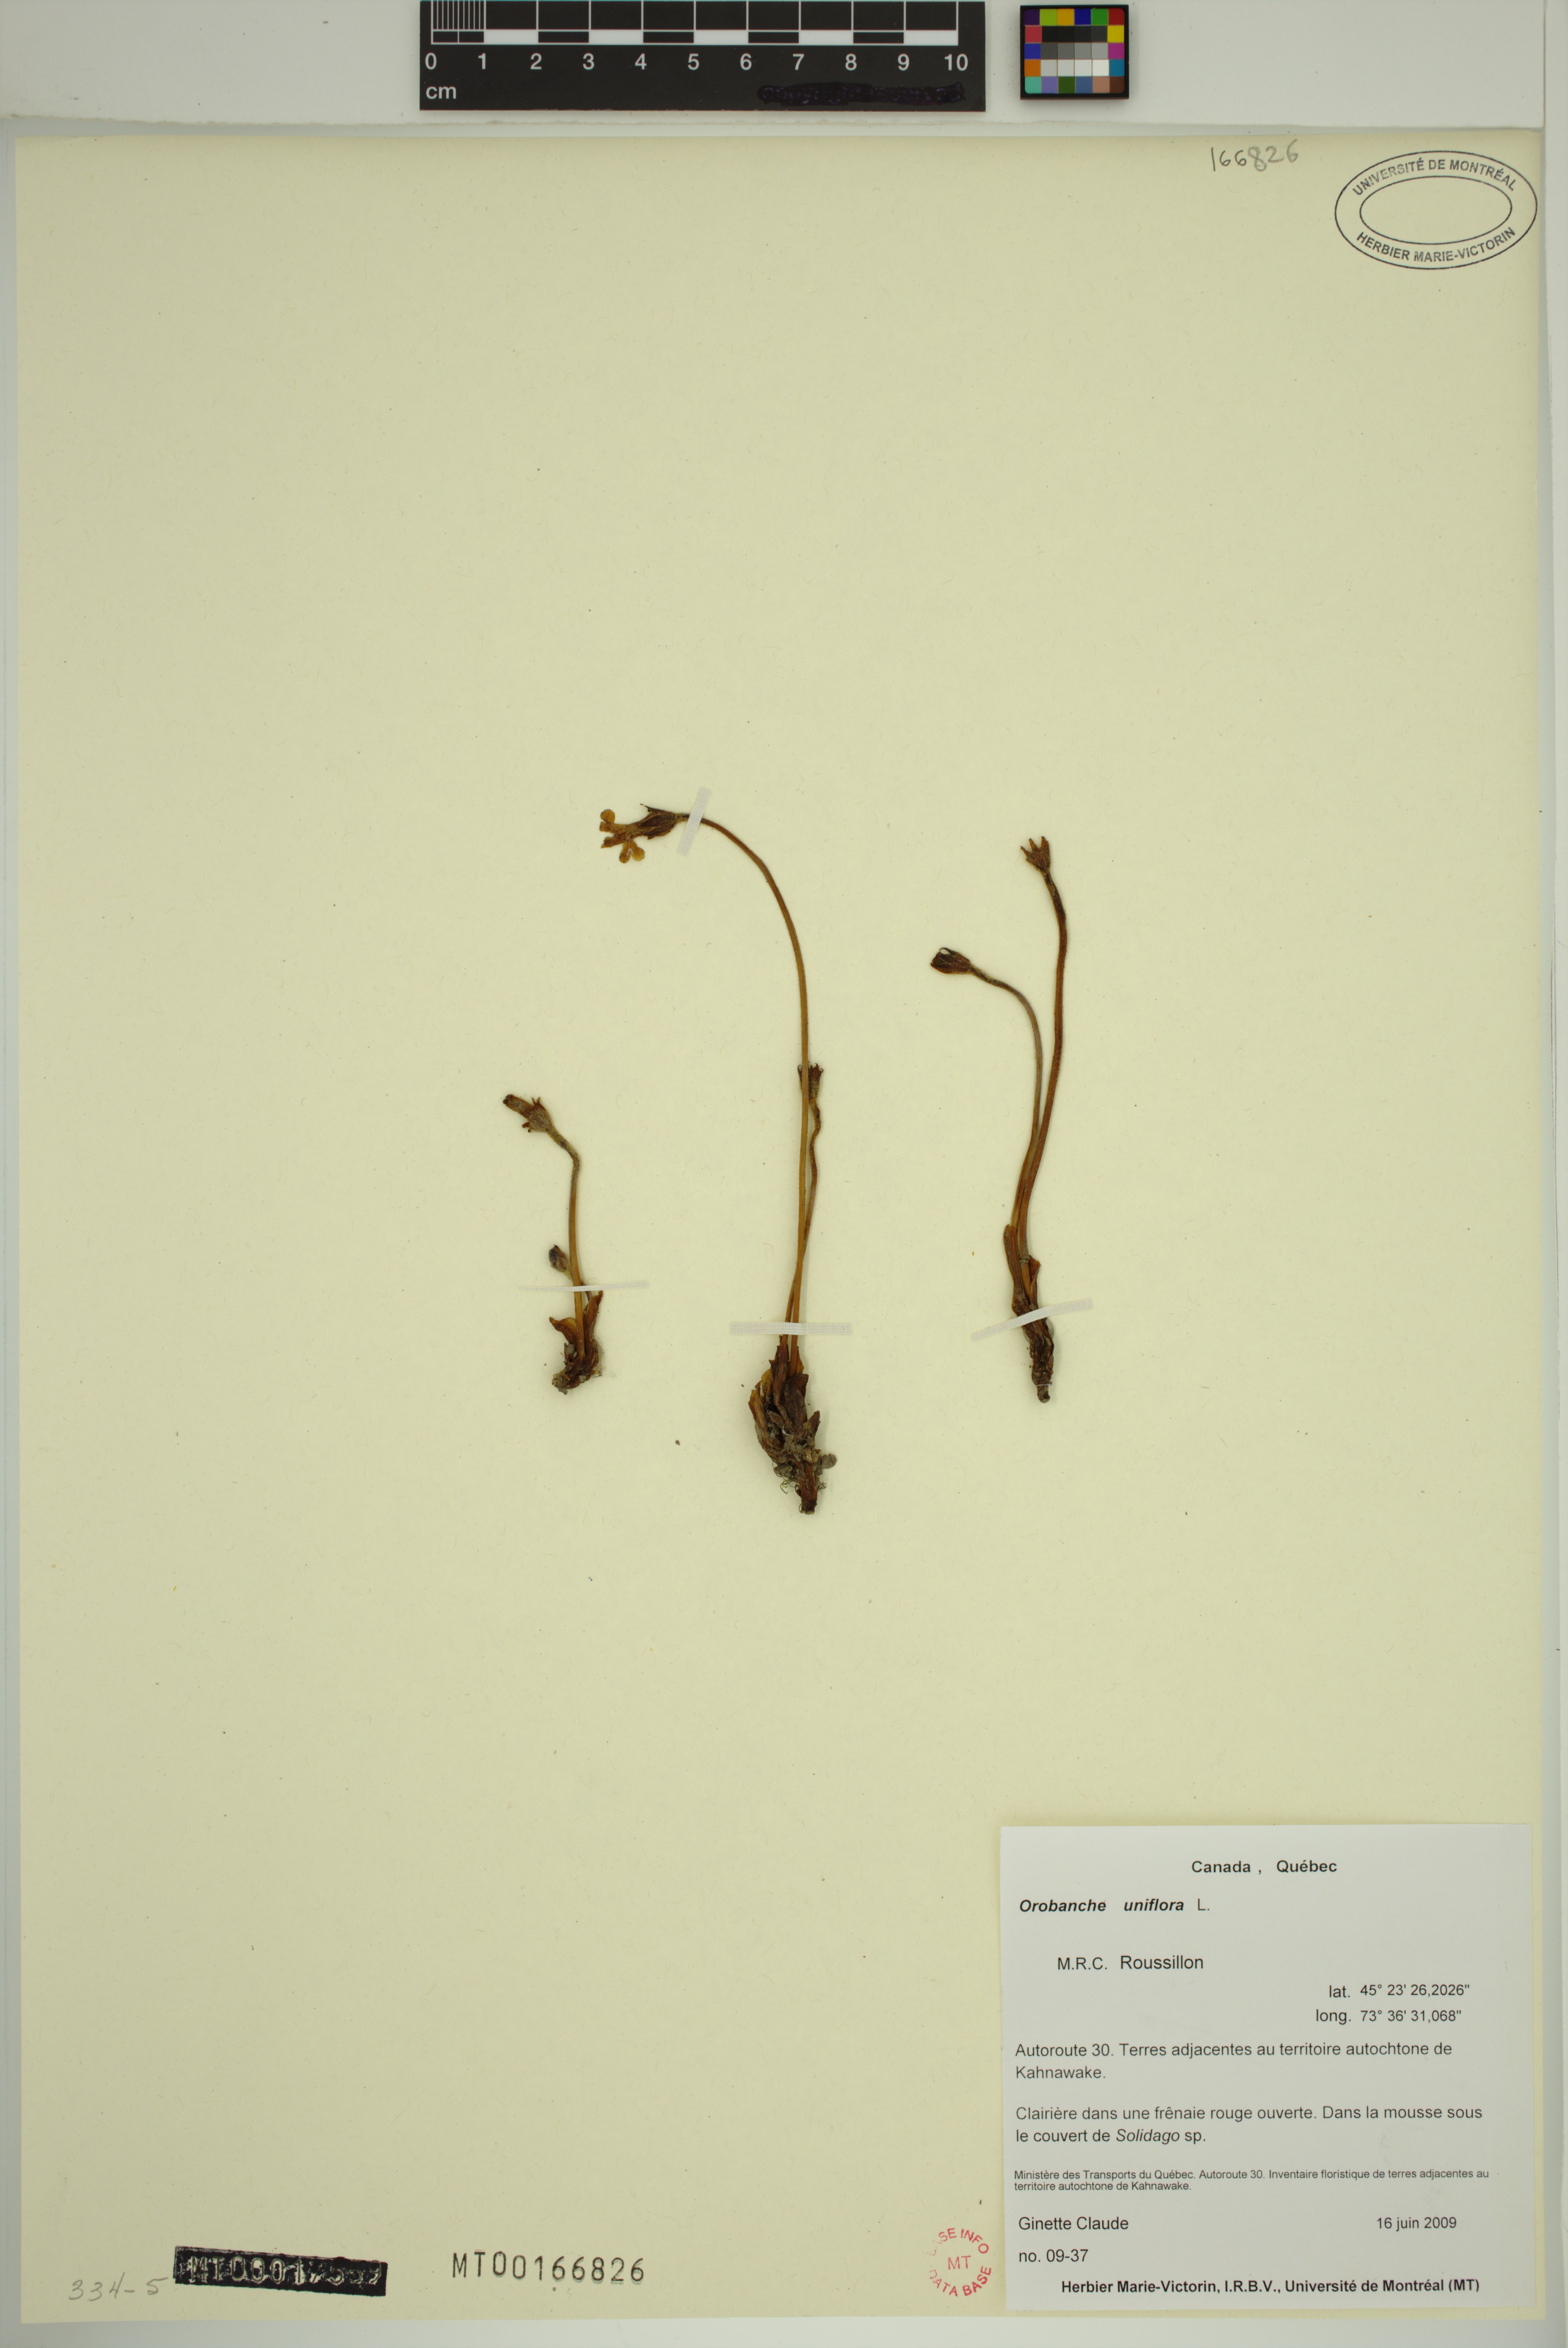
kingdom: Plantae
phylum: Tracheophyta
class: Magnoliopsida
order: Lamiales
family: Orobanchaceae
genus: Aphyllon
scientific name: Aphyllon uniflorum
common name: One-flowered broomrape
